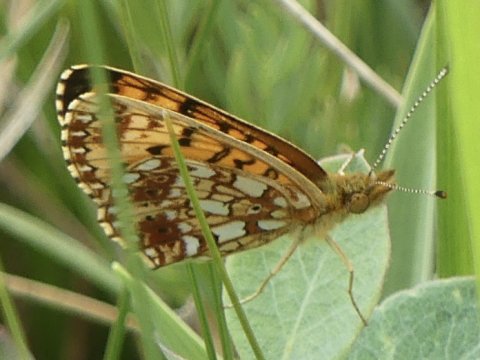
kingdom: Animalia
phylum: Arthropoda
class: Insecta
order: Lepidoptera
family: Nymphalidae
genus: Boloria
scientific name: Boloria selene
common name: Silver-bordered Fritillary
